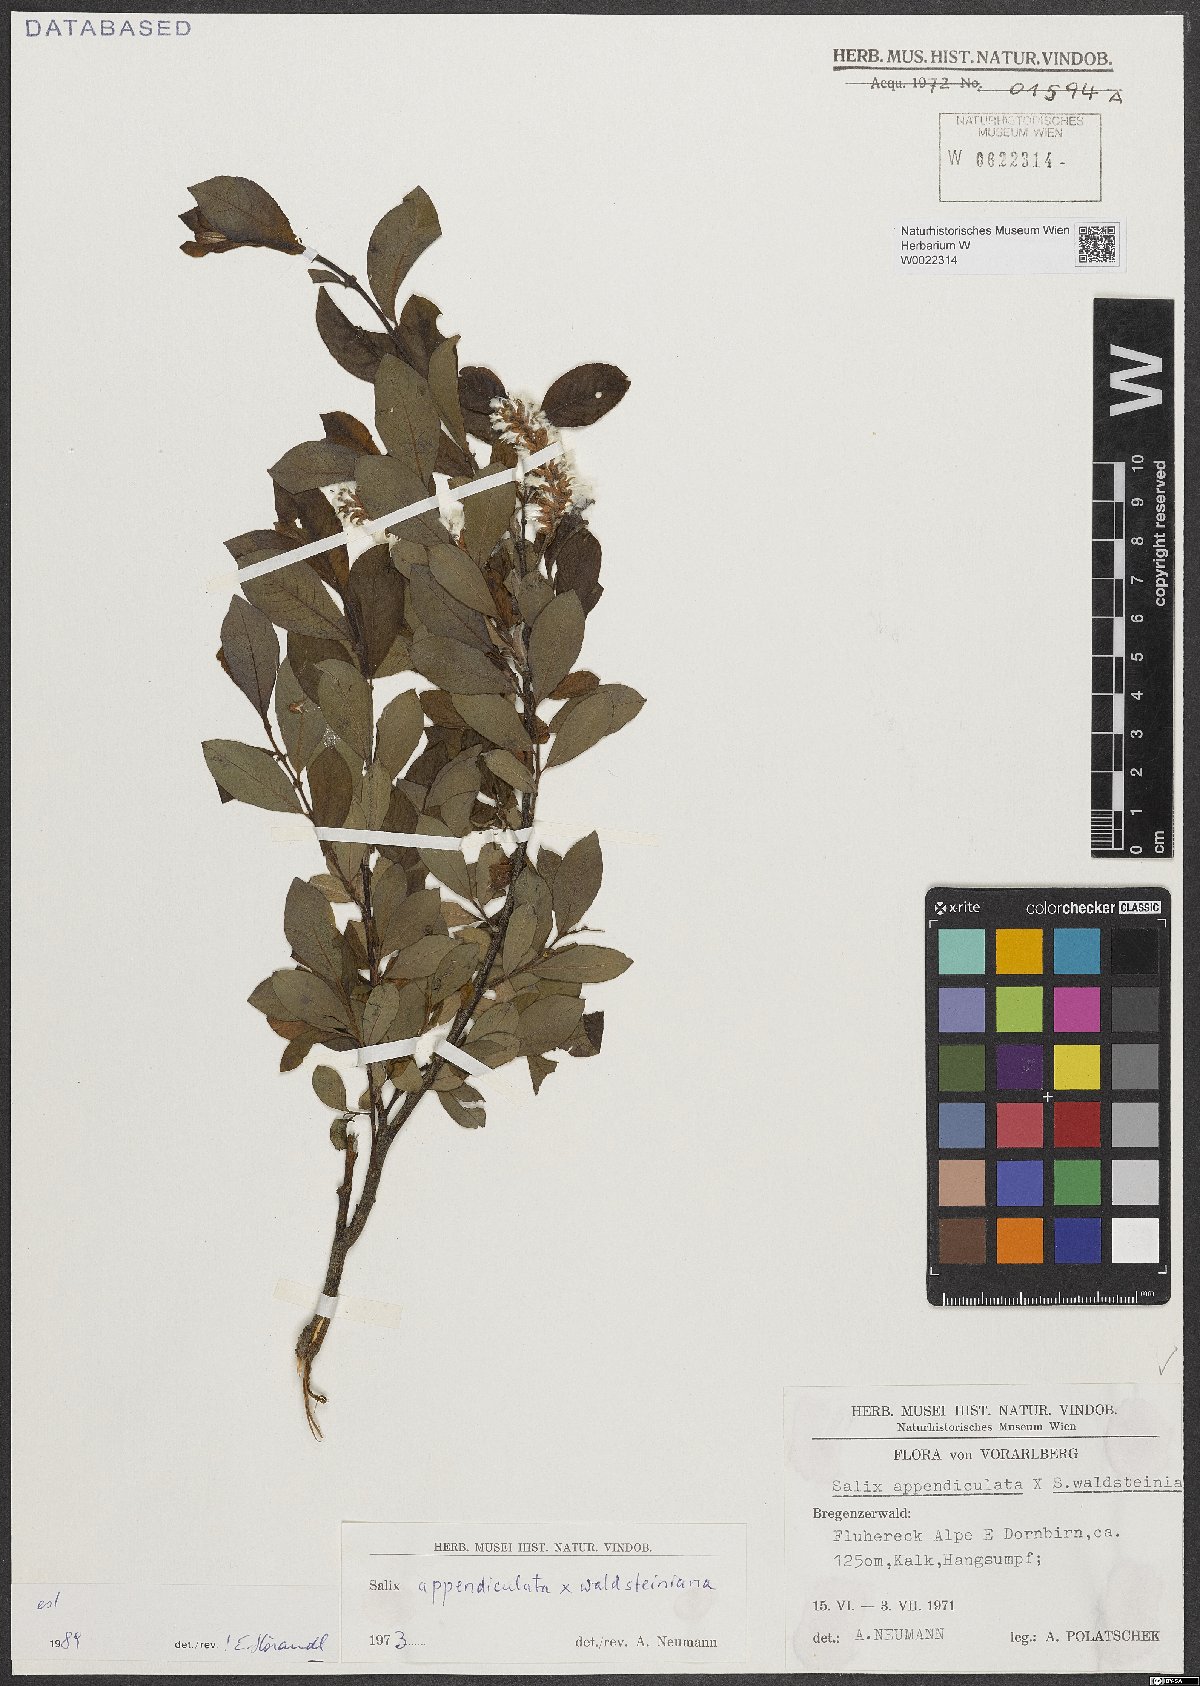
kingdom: Plantae
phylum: Tracheophyta
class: Magnoliopsida
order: Malpighiales
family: Salicaceae
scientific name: Salicaceae
